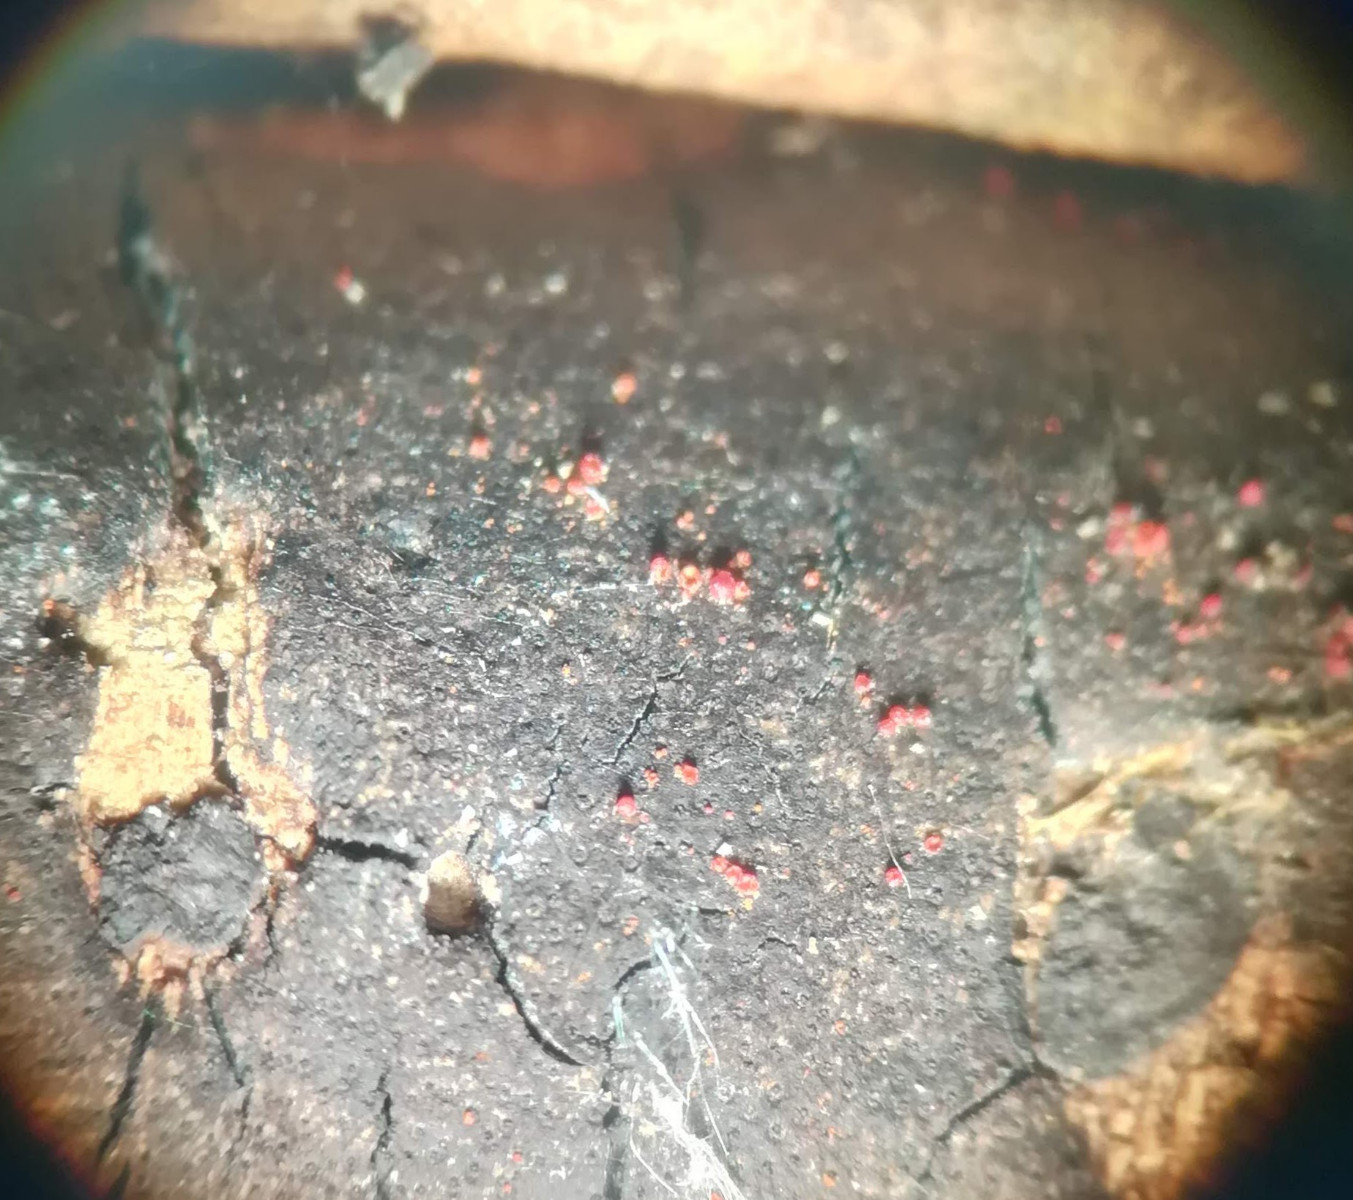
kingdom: Fungi
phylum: Ascomycota
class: Sordariomycetes
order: Hypocreales
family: Nectriaceae
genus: Dialonectria
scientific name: Dialonectria episphaeria
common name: kulskorpe-cinnobersvamp
